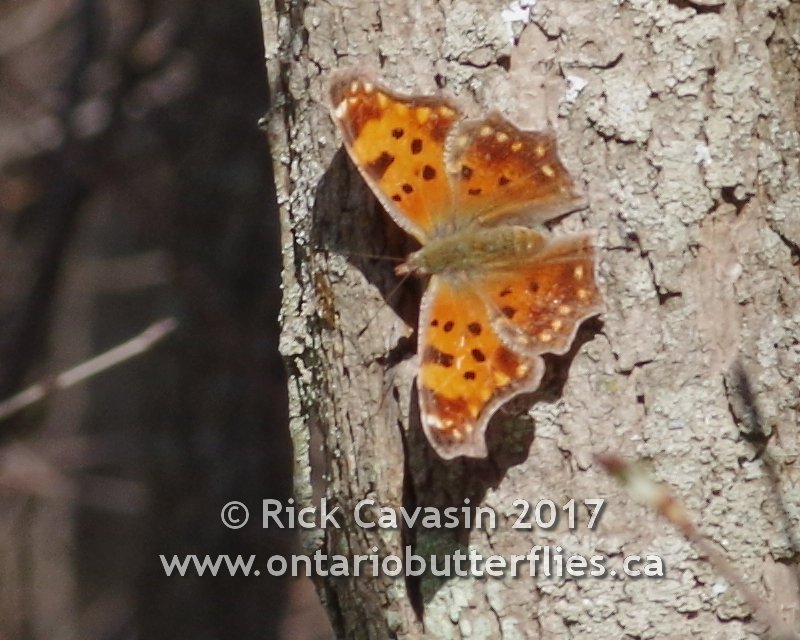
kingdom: Animalia
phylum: Arthropoda
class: Insecta
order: Lepidoptera
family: Nymphalidae
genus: Polygonia
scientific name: Polygonia comma
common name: Eastern Comma
